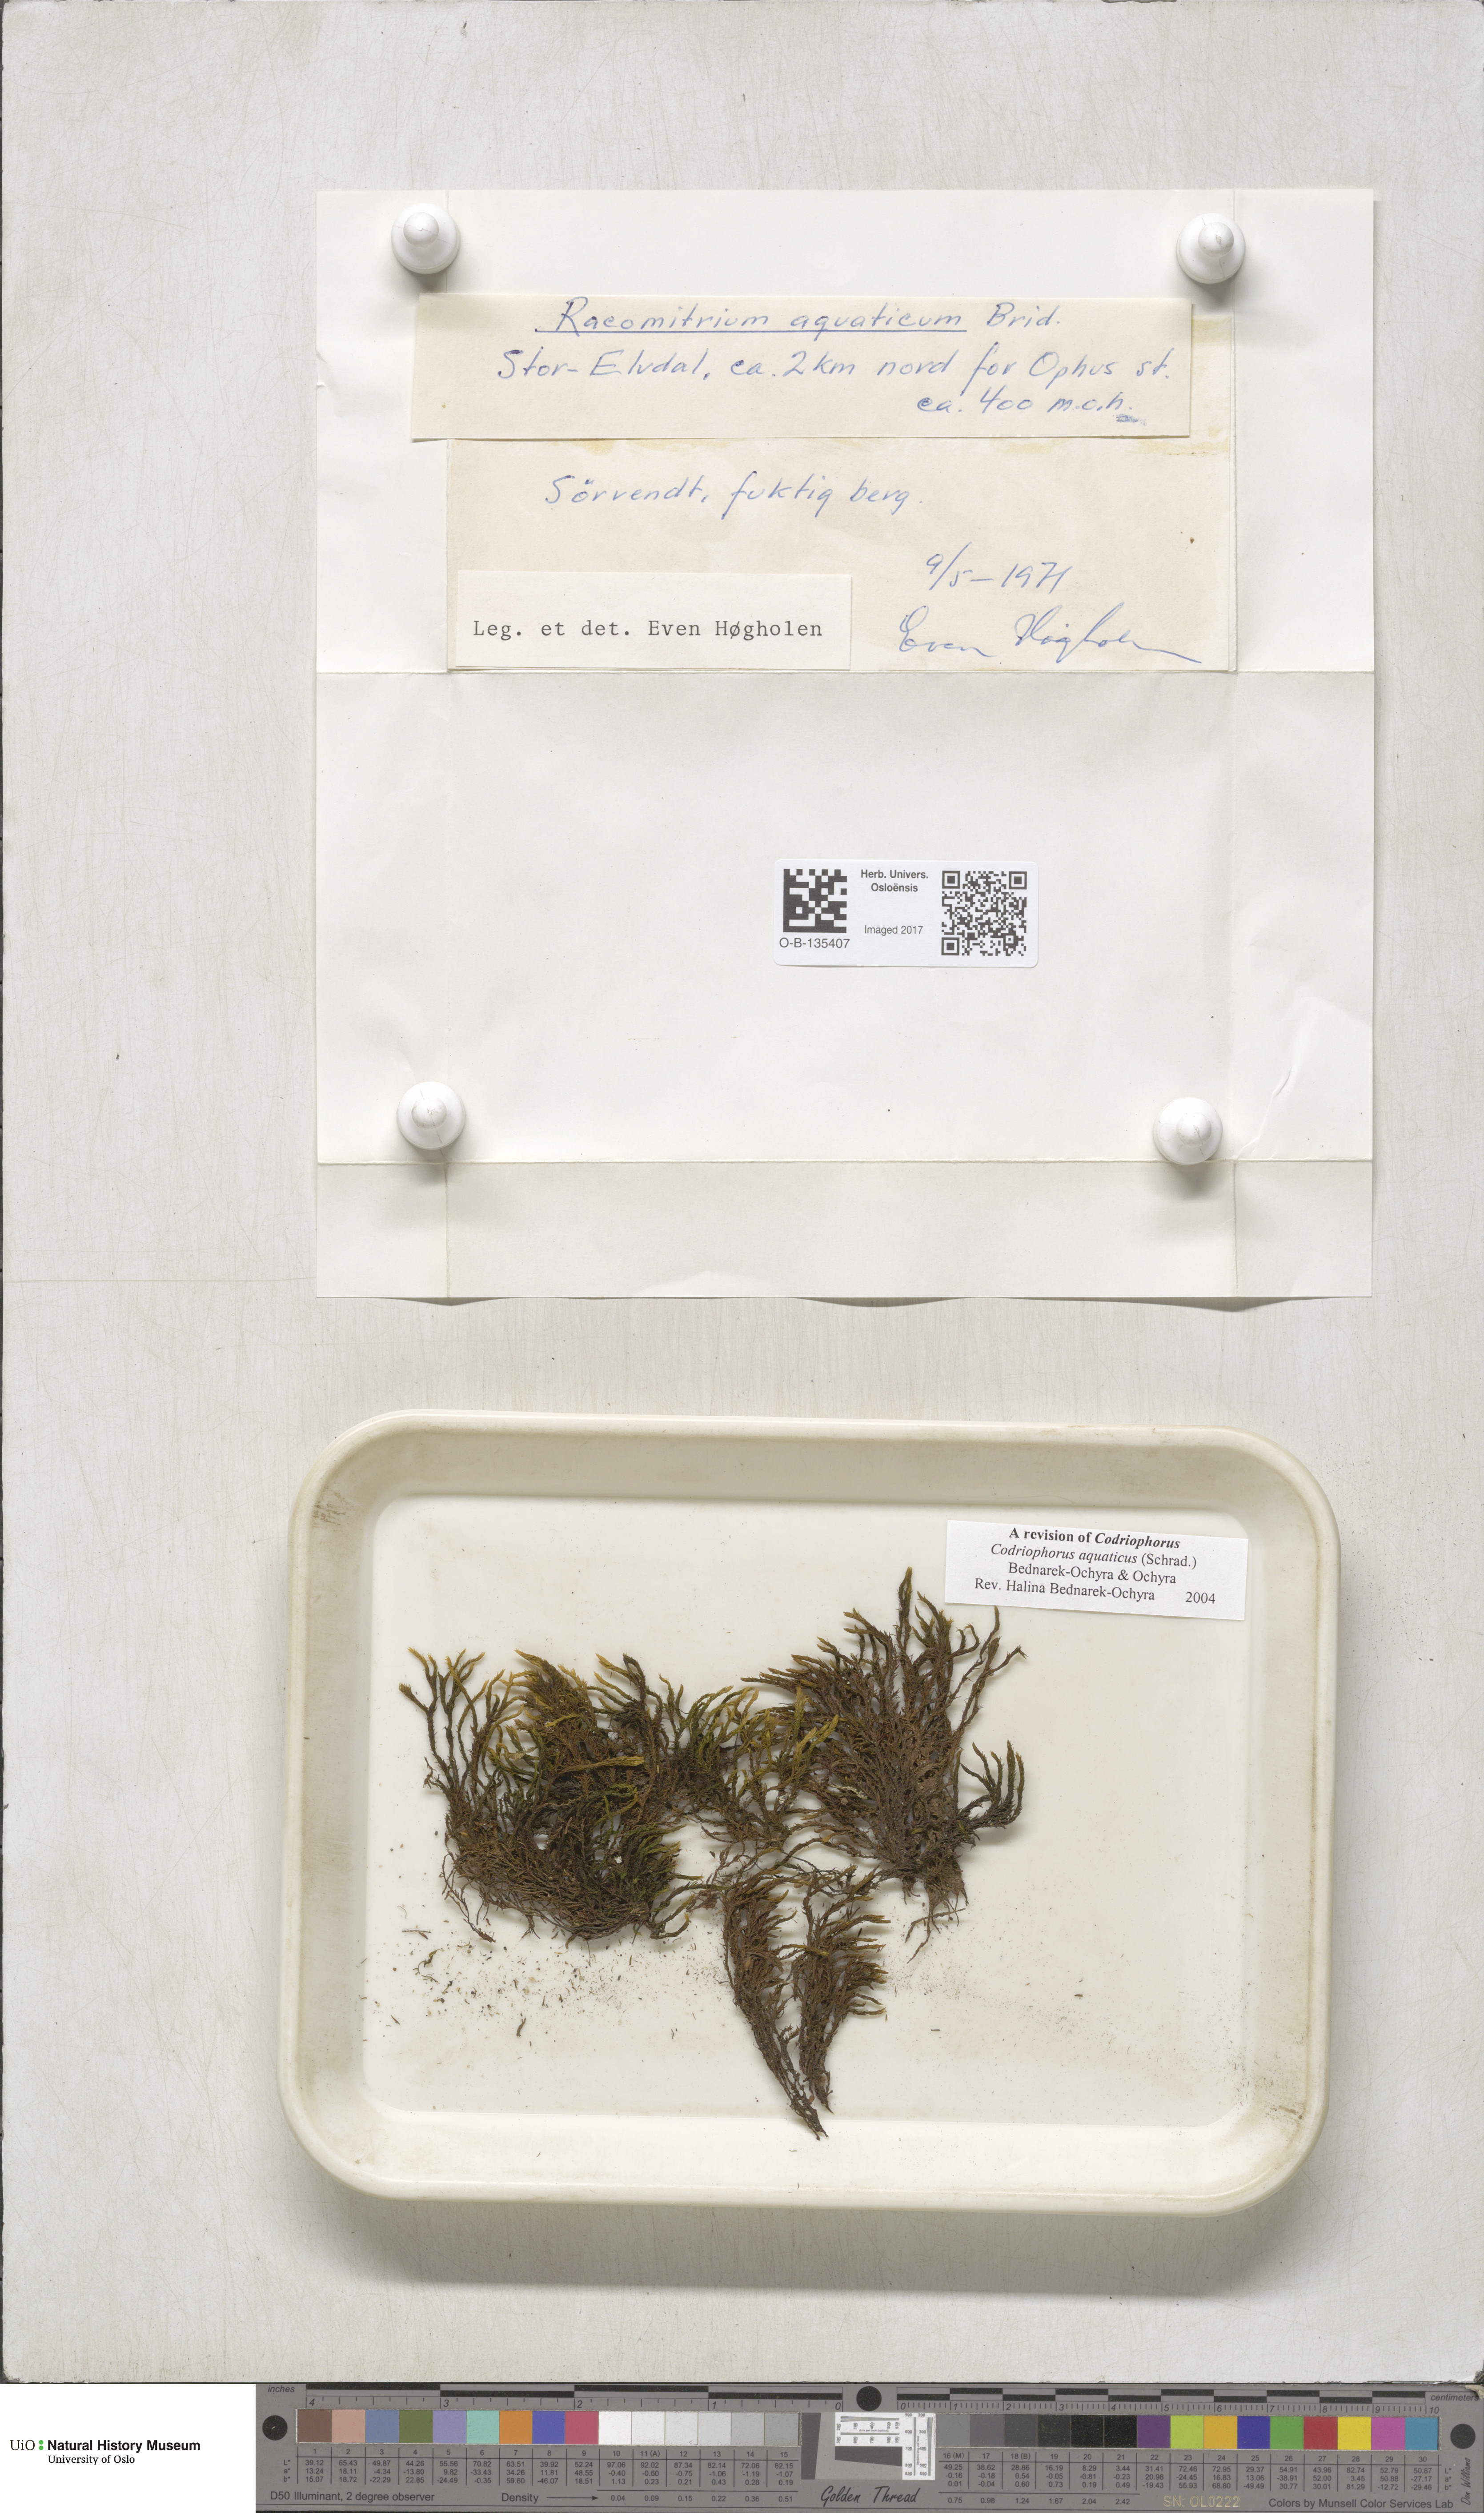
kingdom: Plantae
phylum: Bryophyta
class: Bryopsida
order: Grimmiales
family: Grimmiaceae
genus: Codriophorus
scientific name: Codriophorus aquaticus
